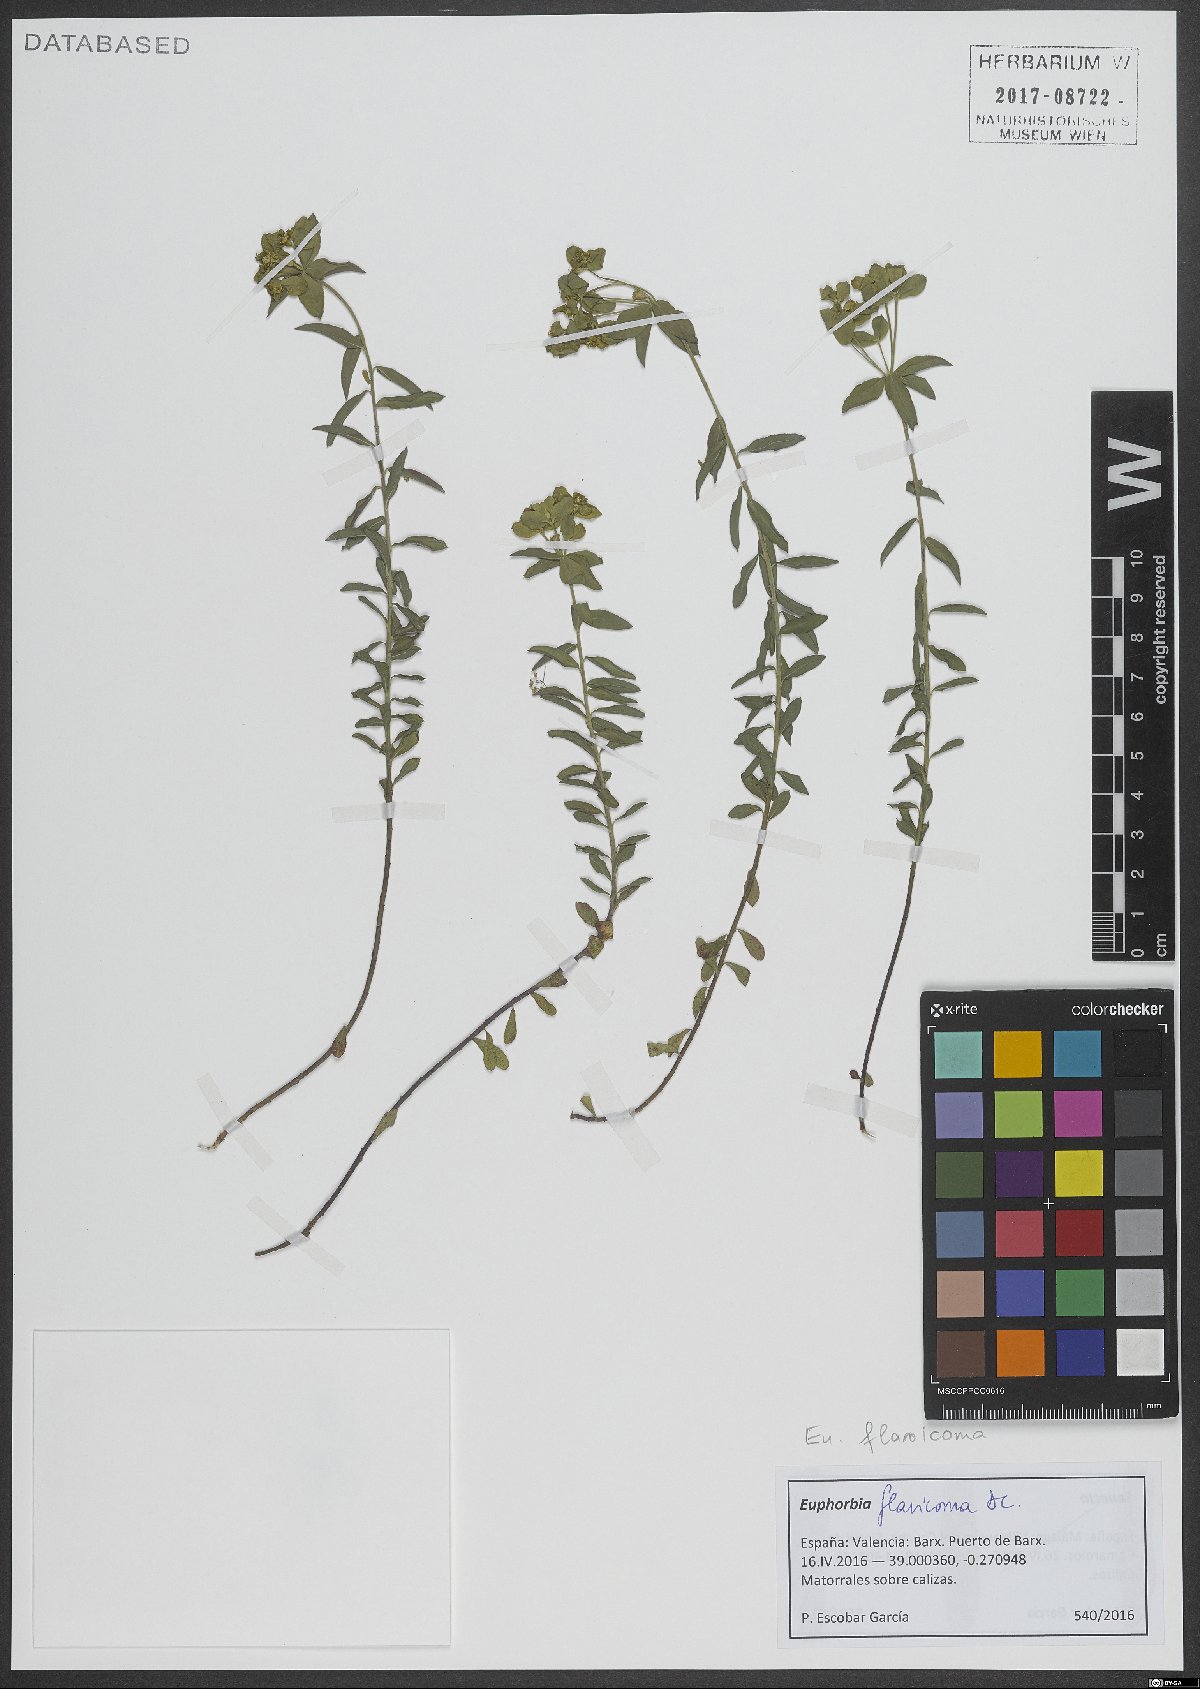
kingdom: Plantae
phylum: Tracheophyta
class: Magnoliopsida
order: Malpighiales
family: Euphorbiaceae
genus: Euphorbia
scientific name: Euphorbia flavicoma
